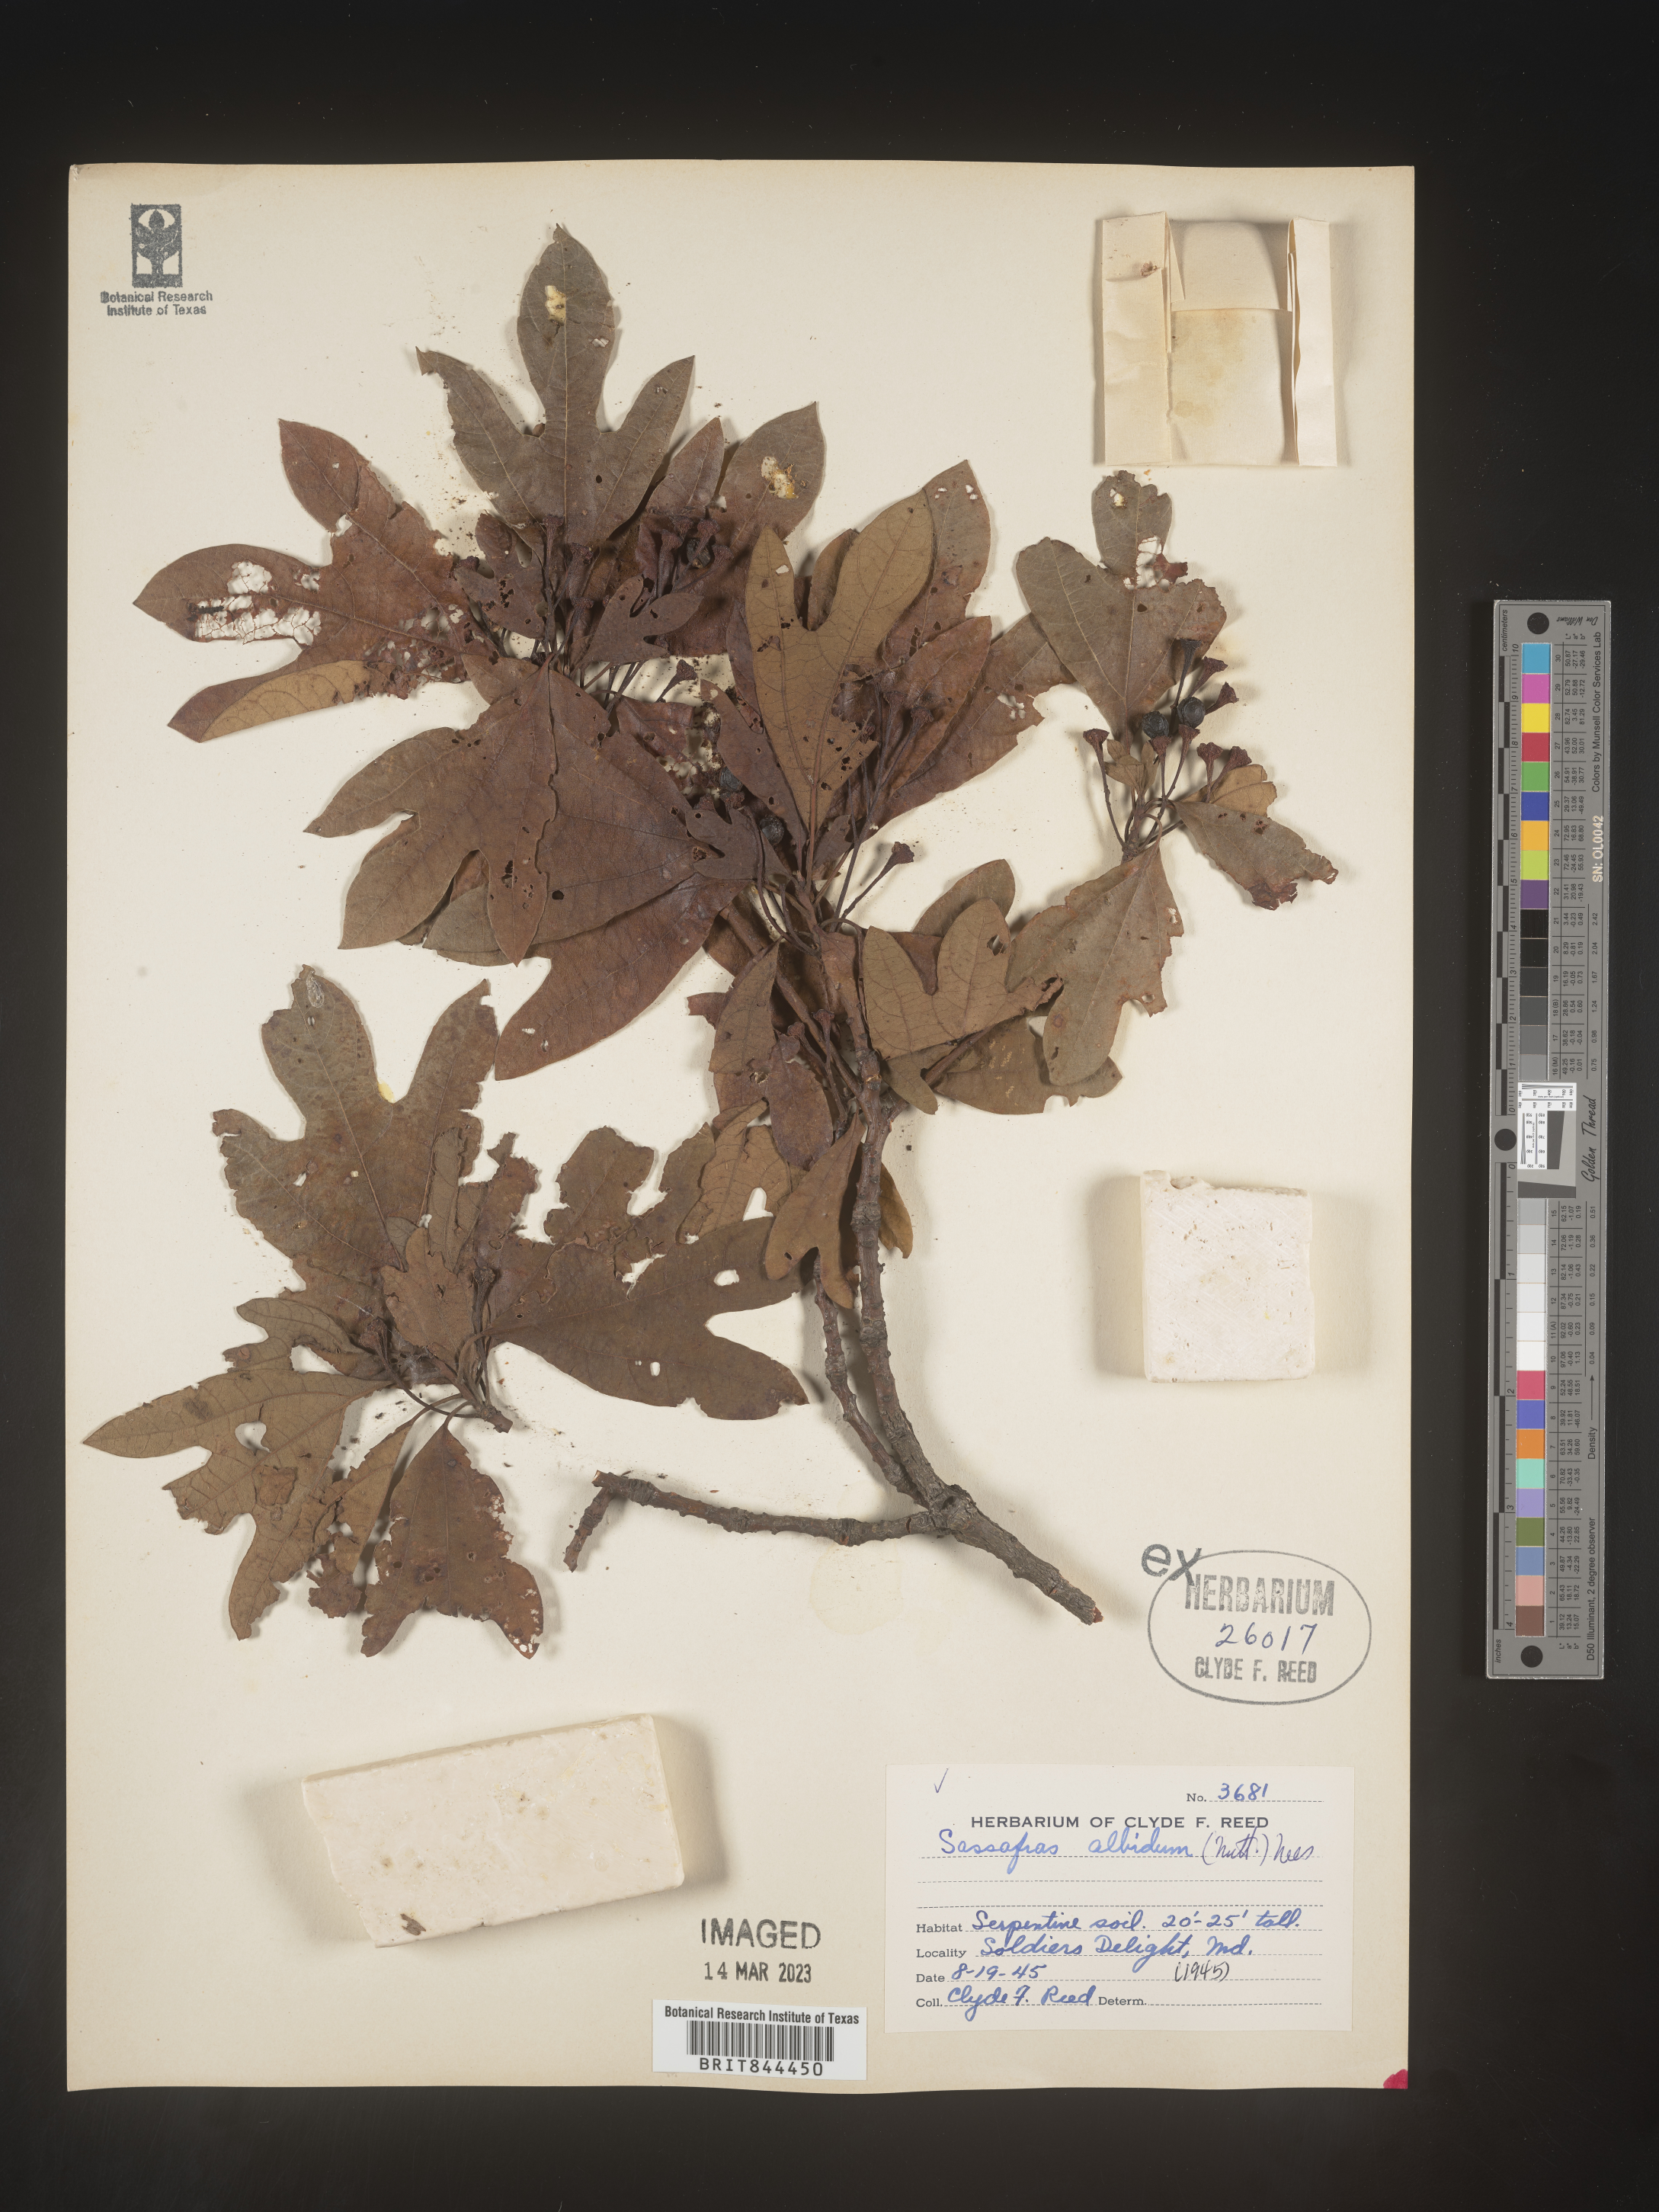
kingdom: Plantae
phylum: Tracheophyta
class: Magnoliopsida
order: Laurales
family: Lauraceae
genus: Sassafras
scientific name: Sassafras albidum
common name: Sassafras
